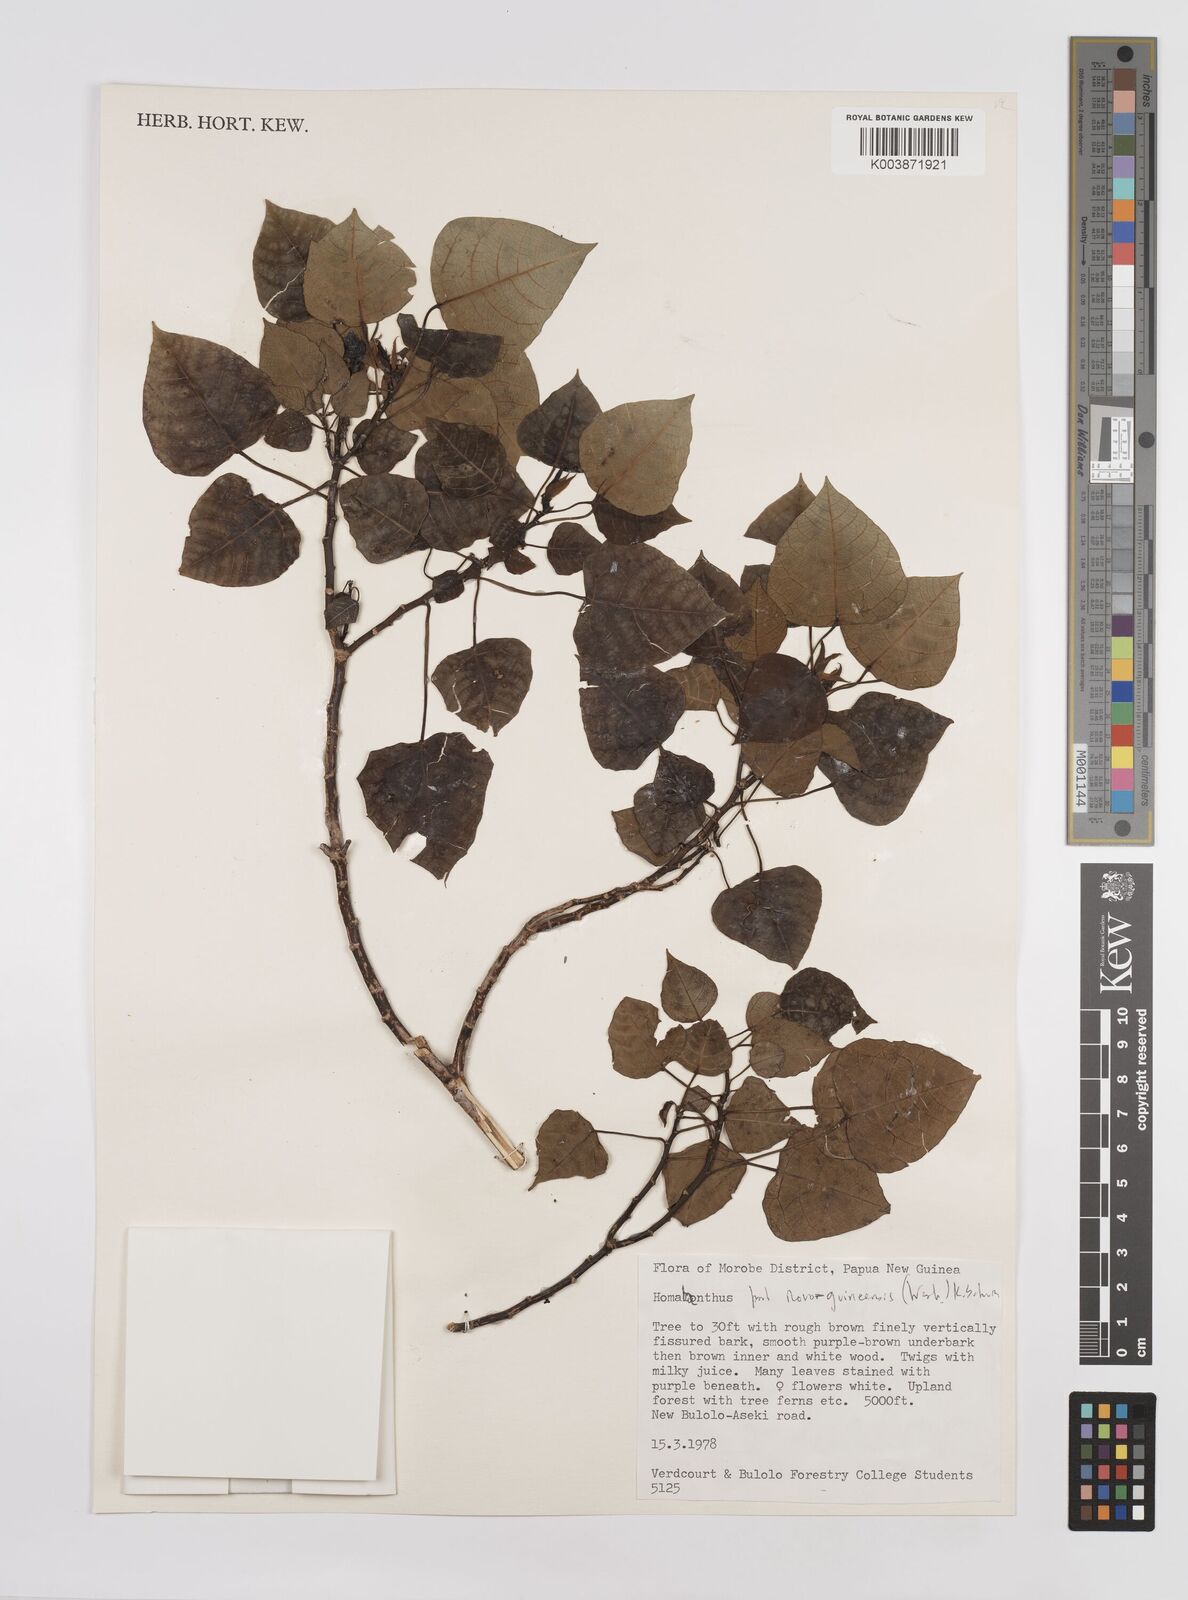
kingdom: Plantae
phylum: Tracheophyta
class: Magnoliopsida
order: Malpighiales
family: Euphorbiaceae
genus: Homalanthus
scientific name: Homalanthus novoguineensis
